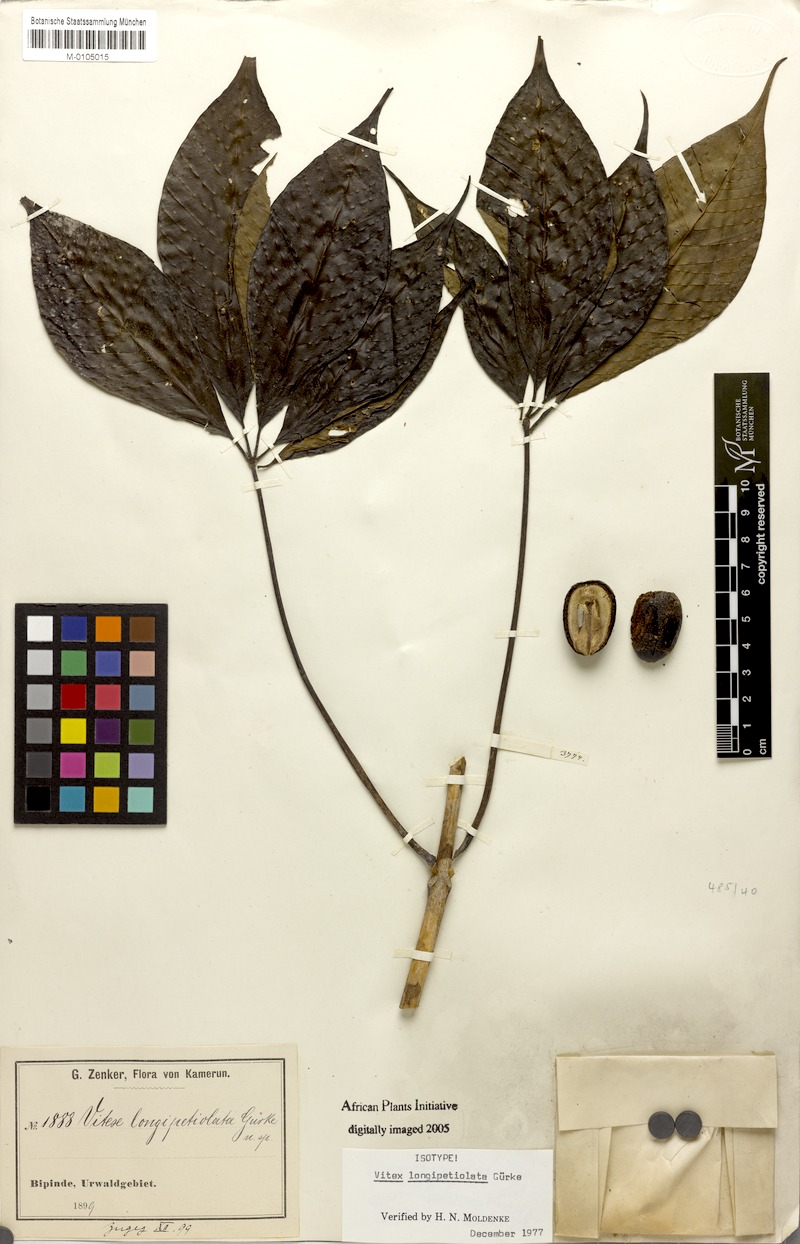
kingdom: Plantae
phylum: Tracheophyta
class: Magnoliopsida
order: Lamiales
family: Lamiaceae
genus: Vitex
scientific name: Vitex rivularis
